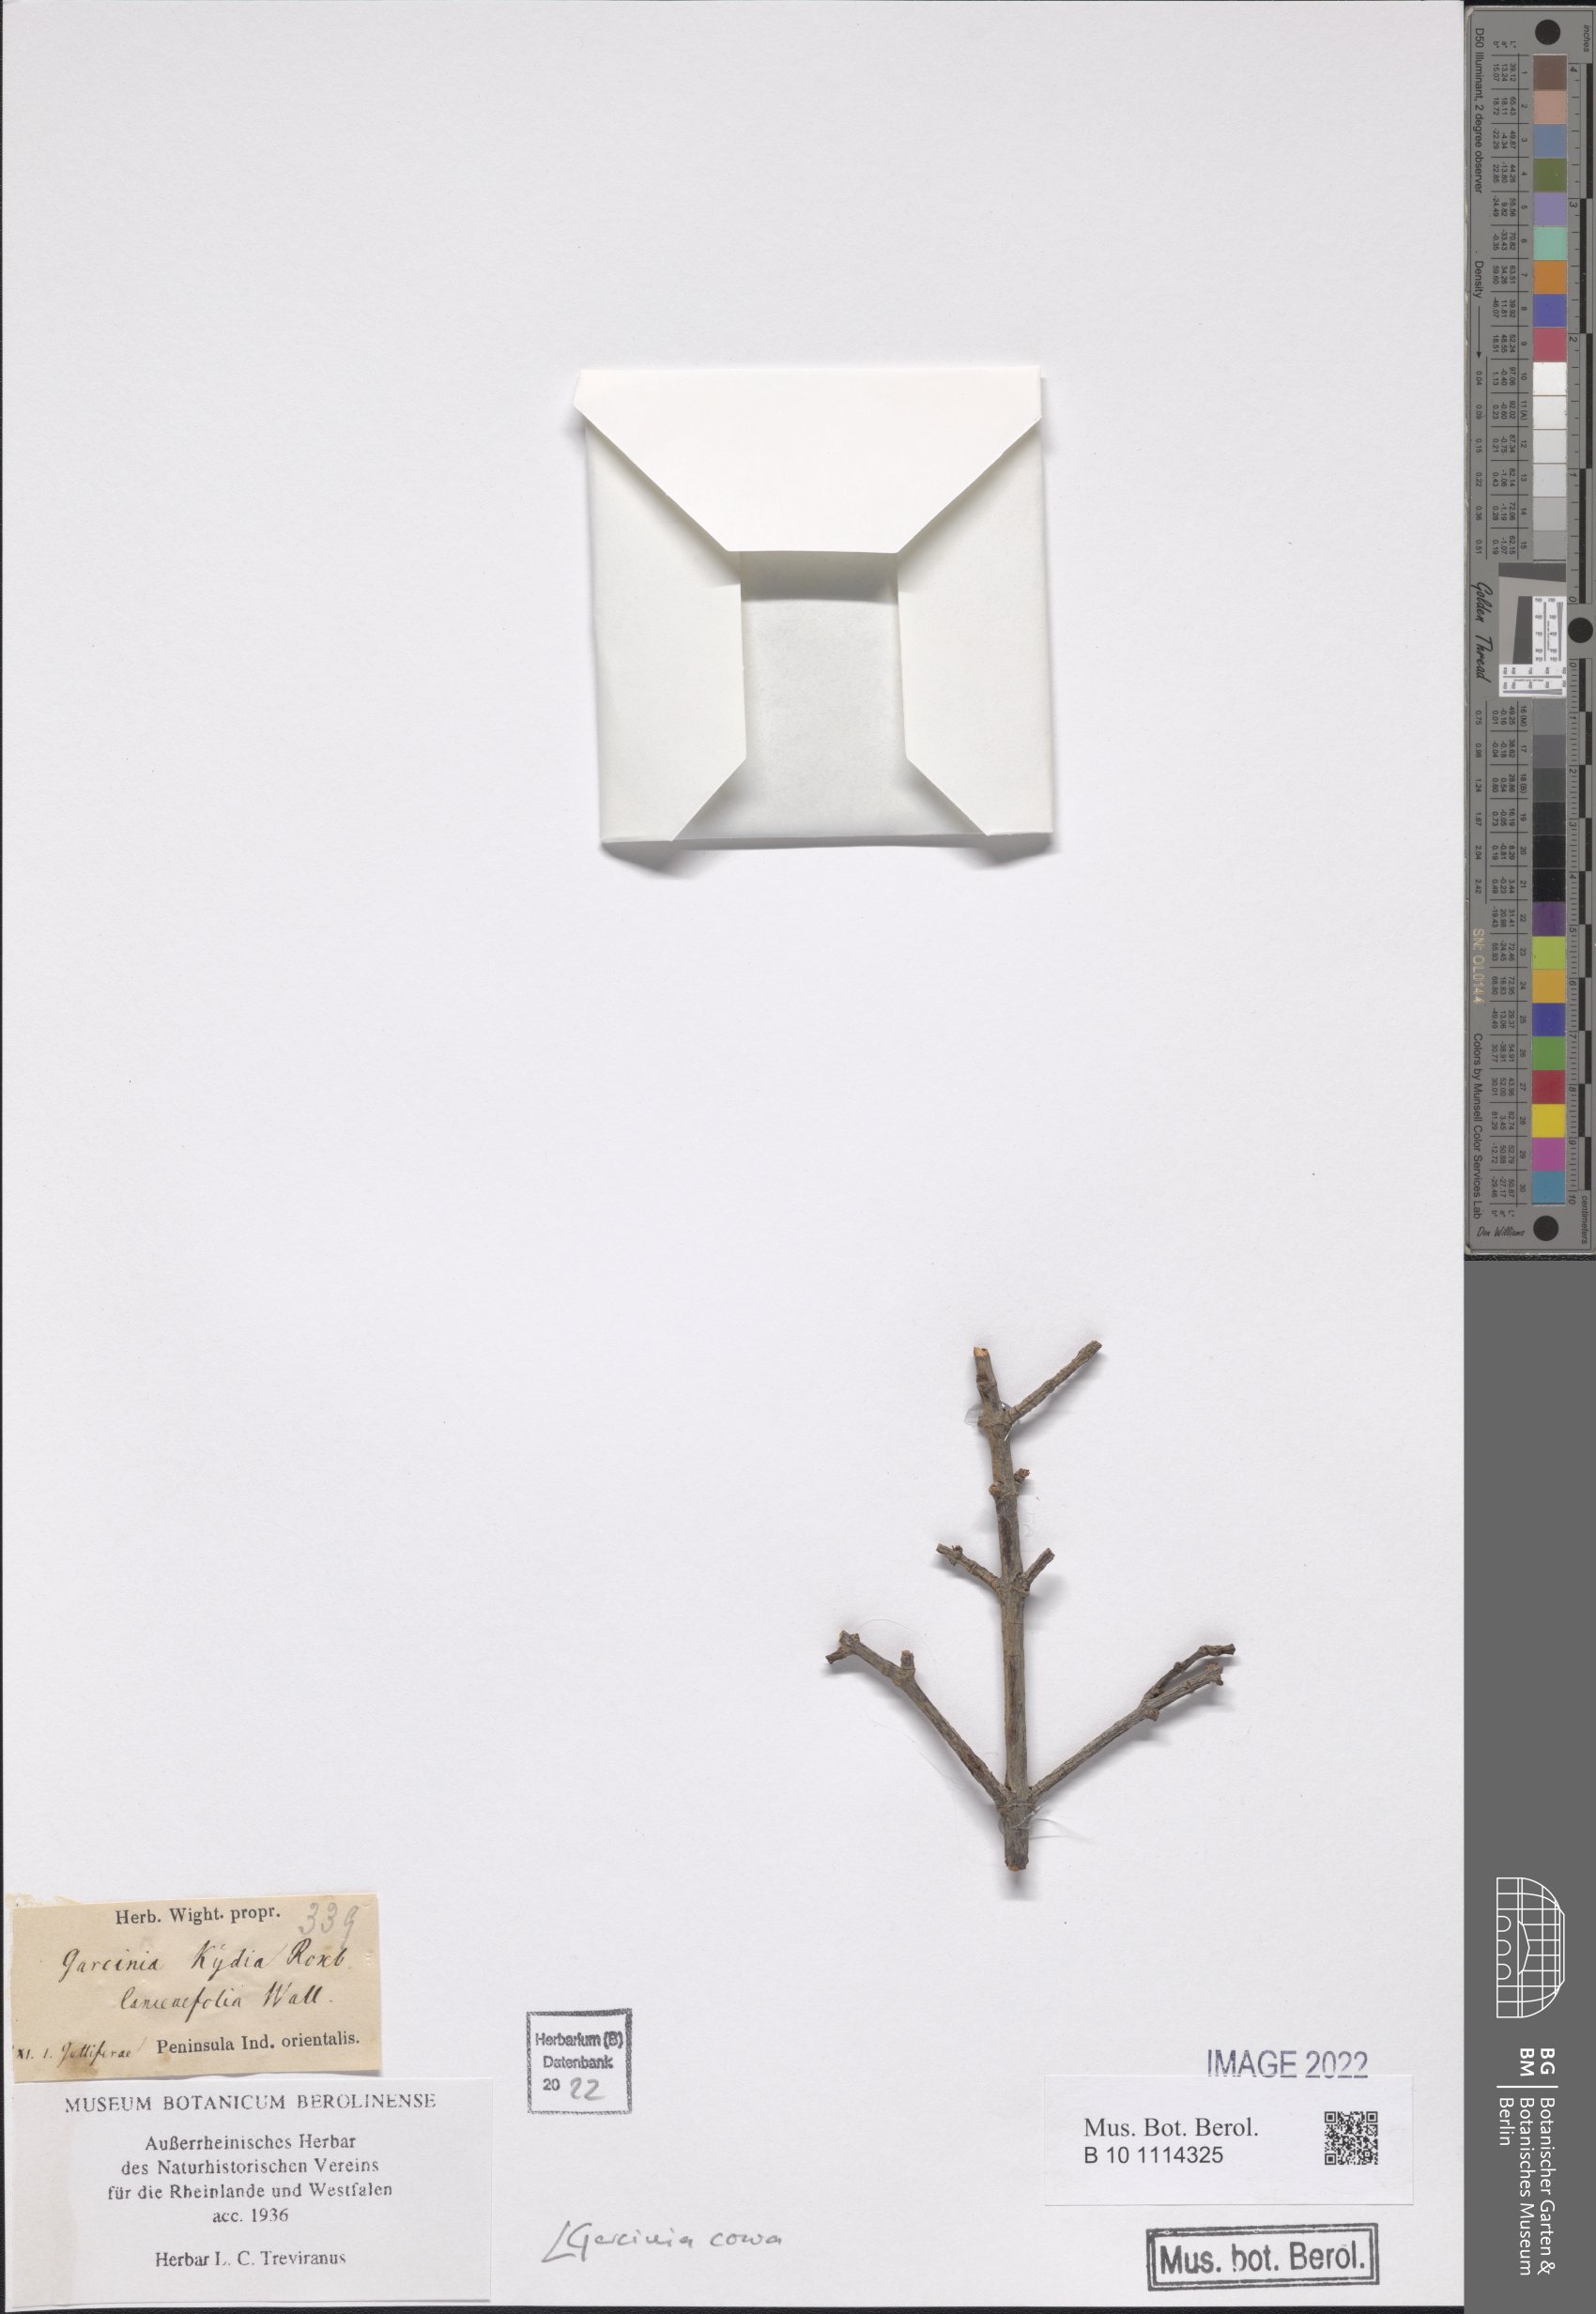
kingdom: Plantae
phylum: Tracheophyta
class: Magnoliopsida
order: Malpighiales
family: Clusiaceae
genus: Garcinia
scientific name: Garcinia cowa
